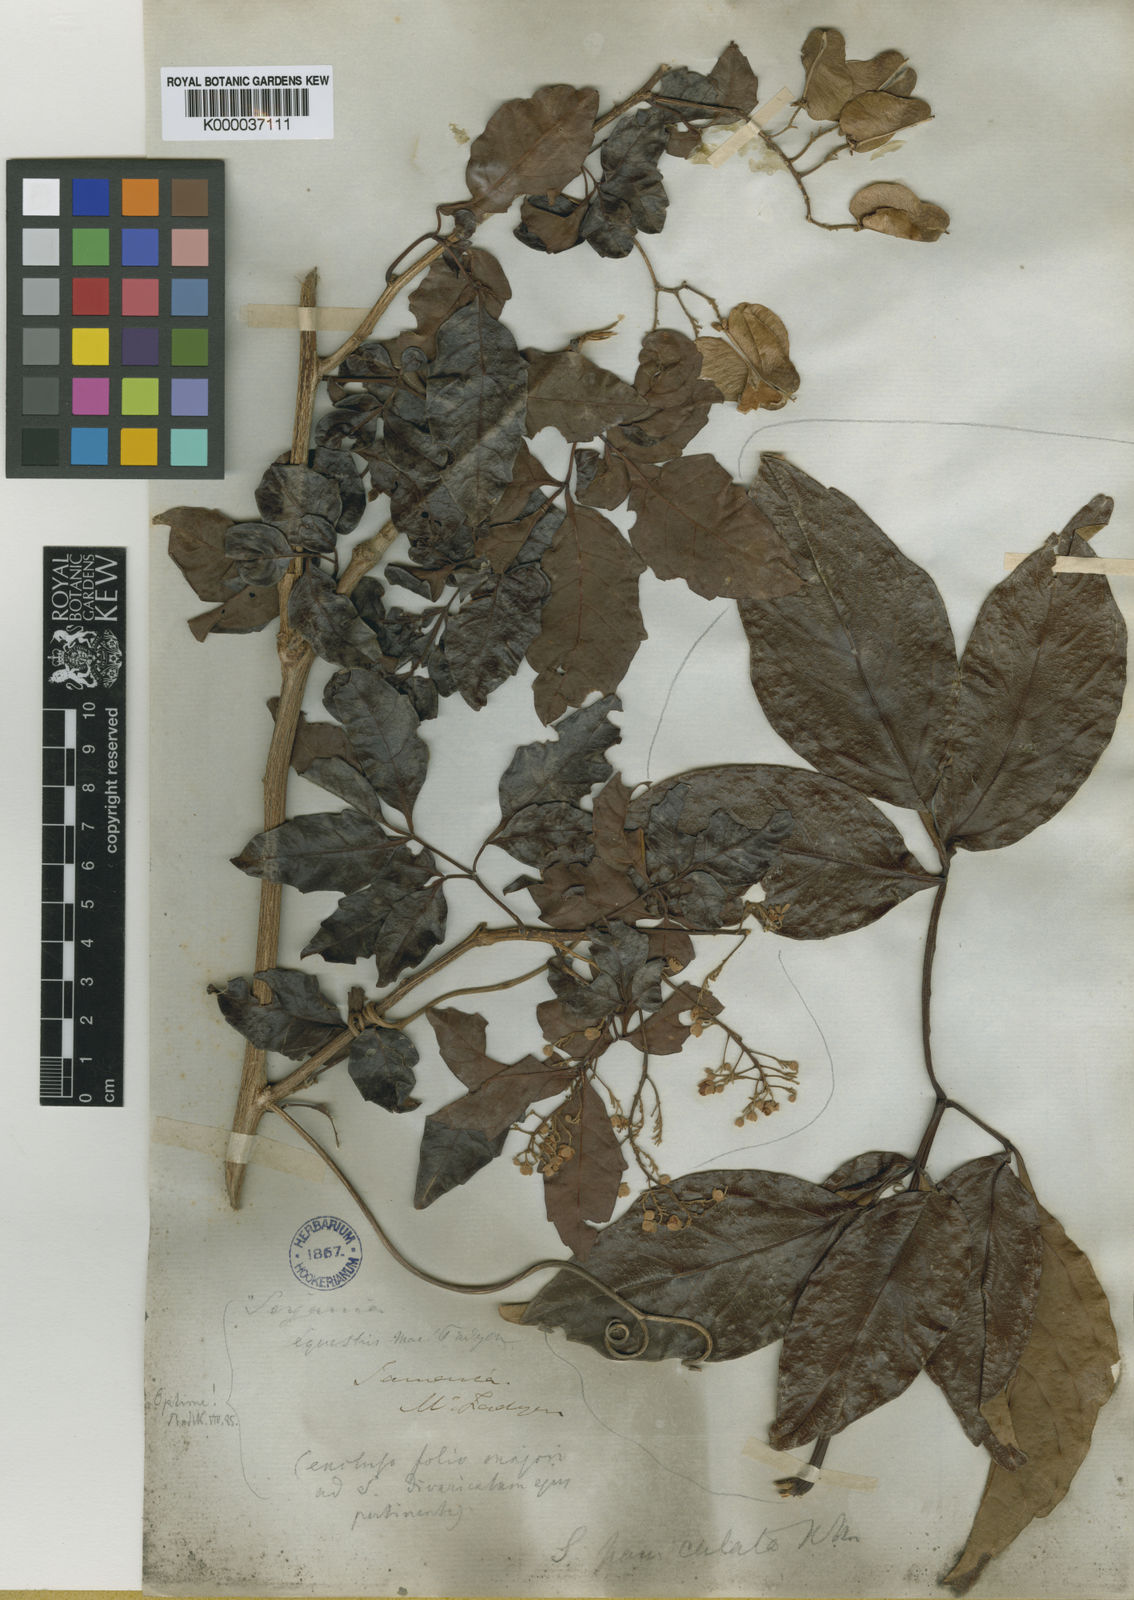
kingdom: Plantae
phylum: Tracheophyta
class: Magnoliopsida
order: Sapindales
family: Sapindaceae
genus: Serjania
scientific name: Serjania equestris
